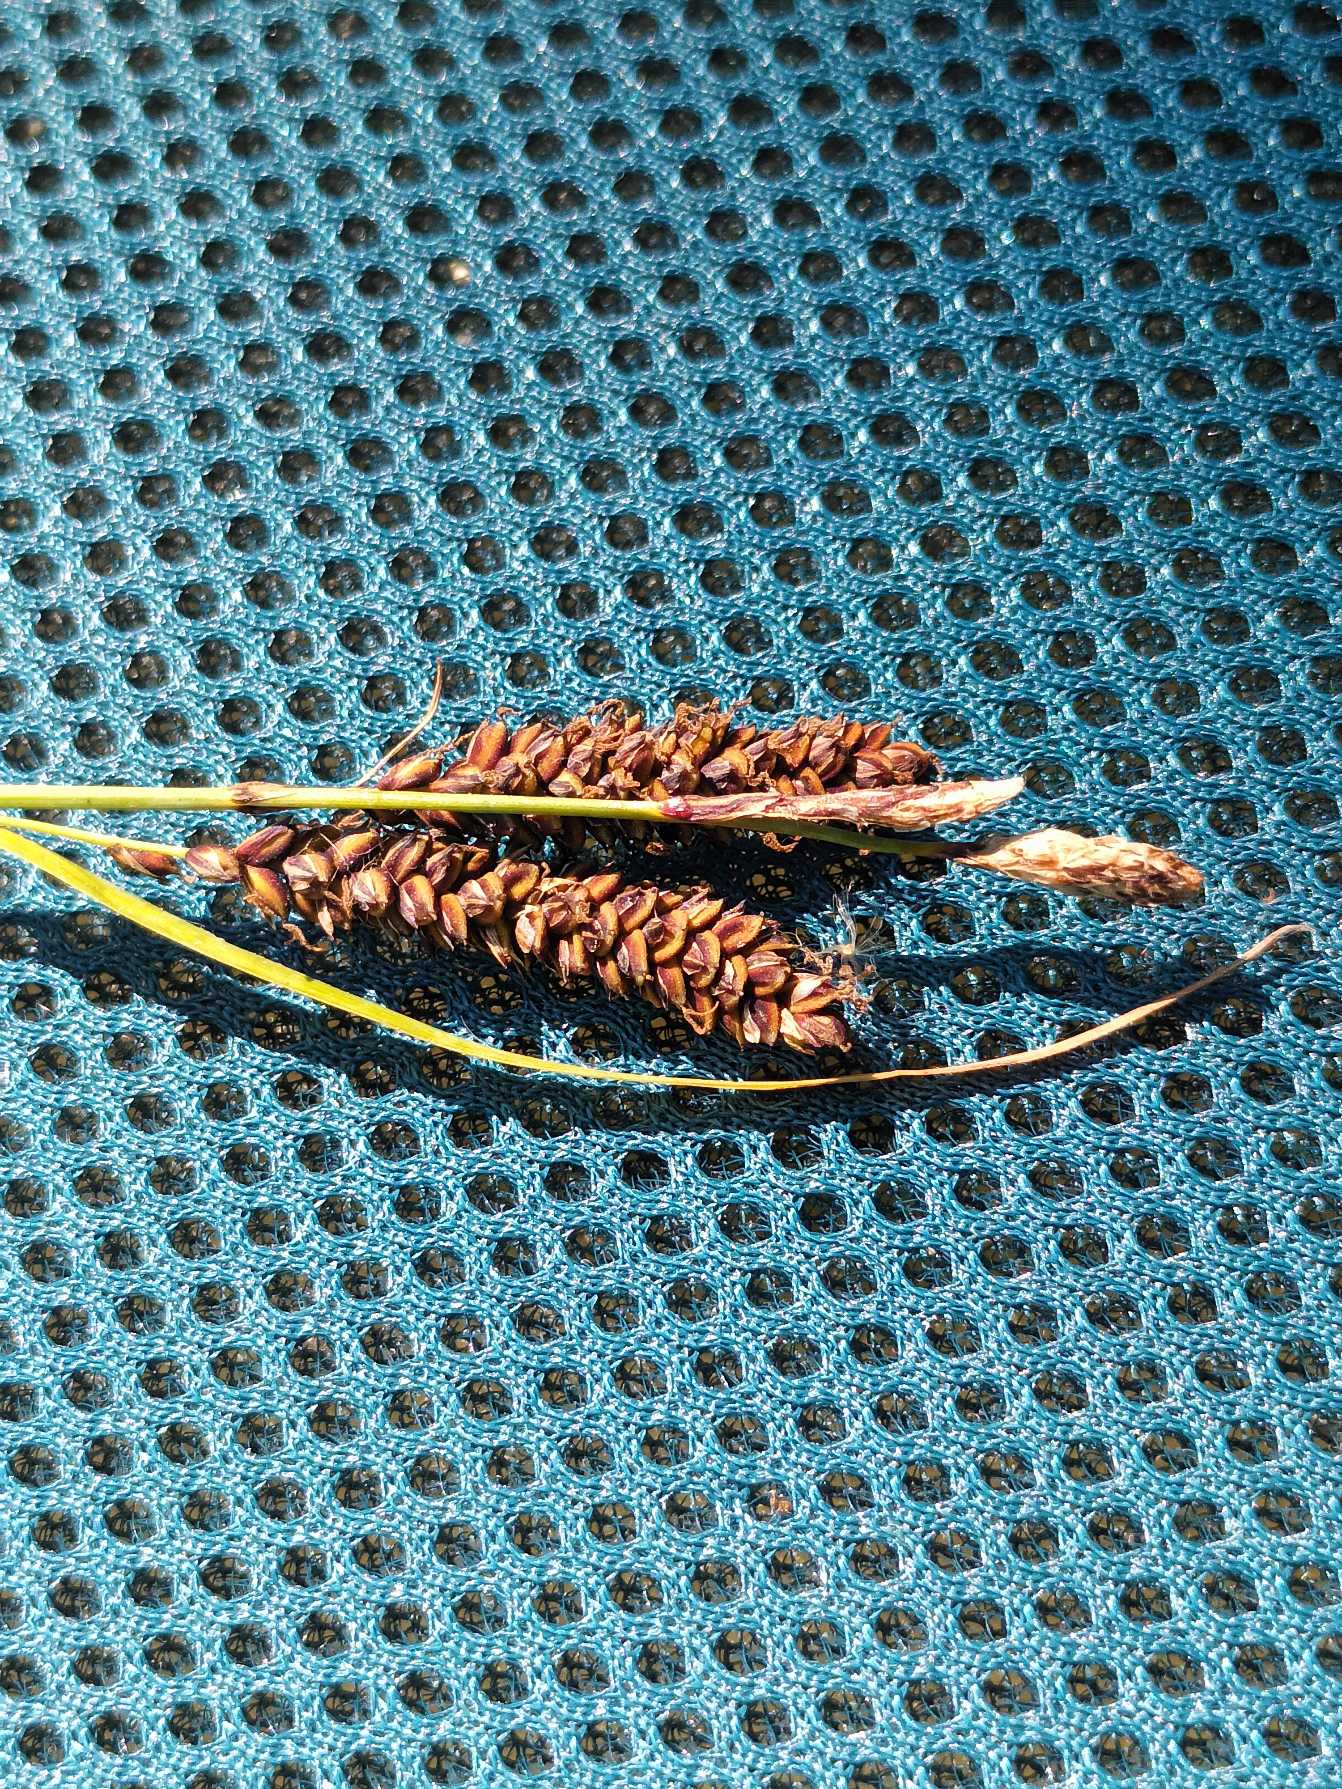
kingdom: Plantae
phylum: Tracheophyta
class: Liliopsida
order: Poales
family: Cyperaceae
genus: Carex
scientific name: Carex flacca
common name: Blågrøn star
